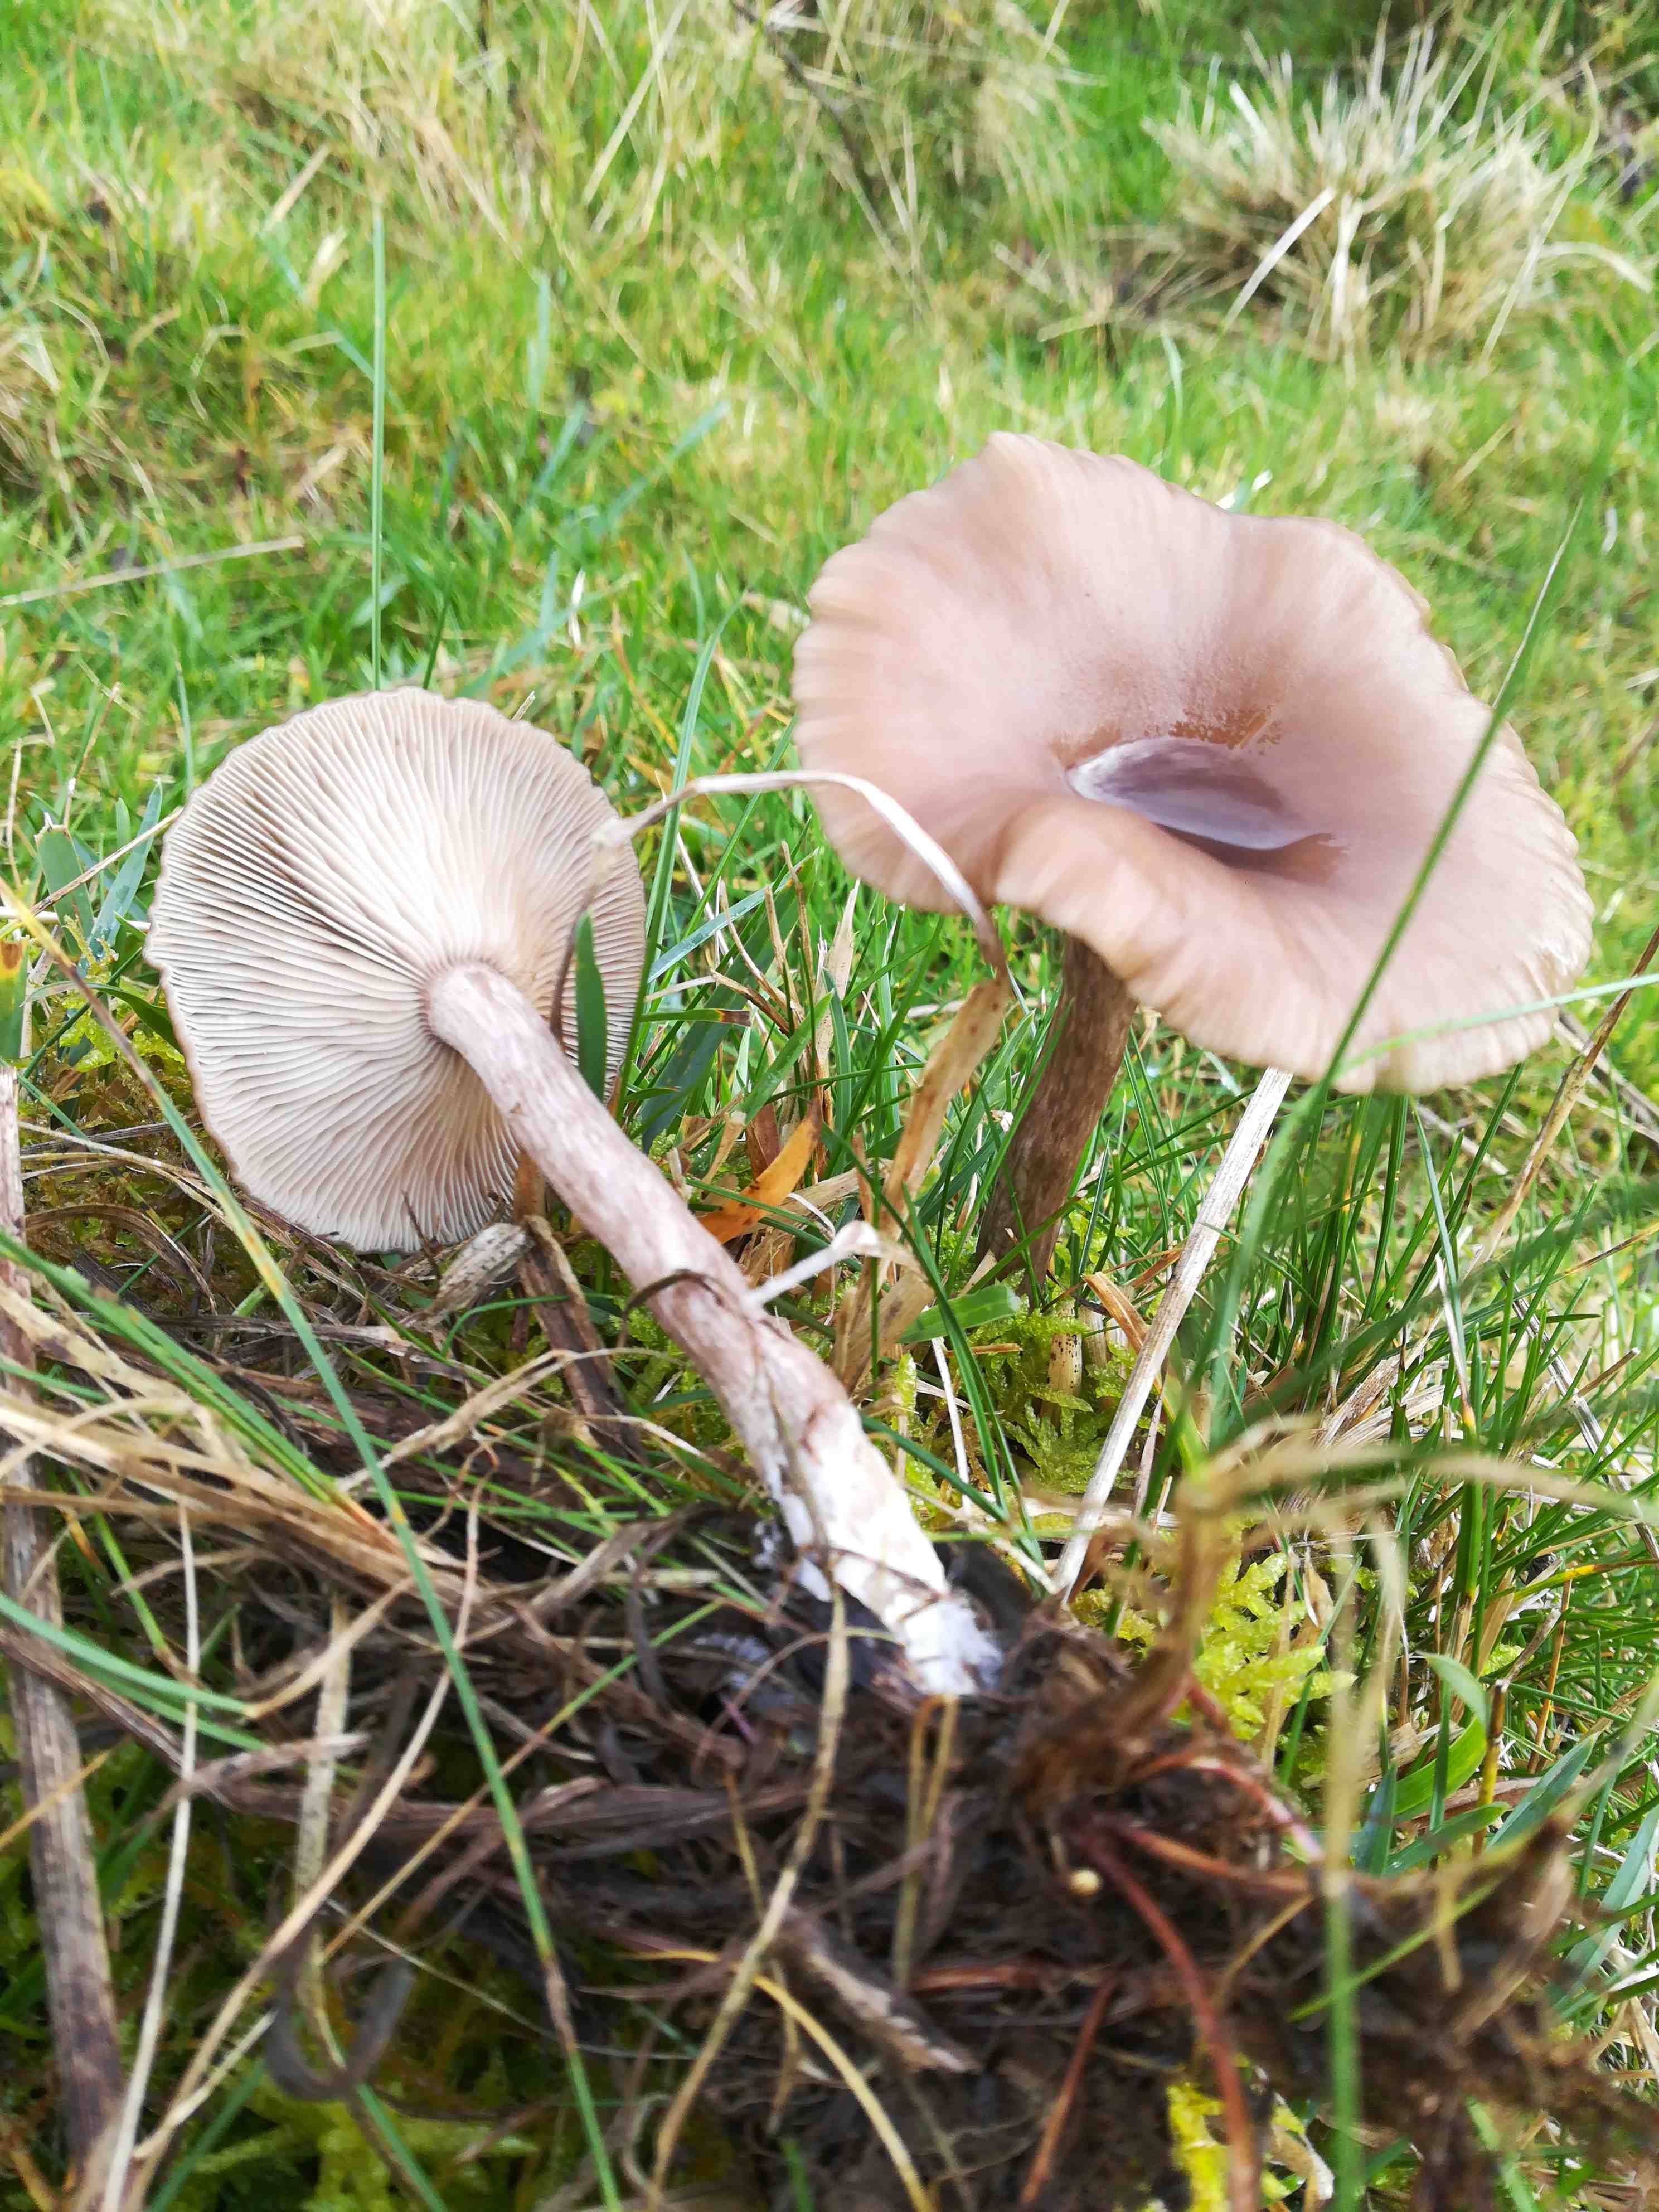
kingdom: Fungi
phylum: Basidiomycota
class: Agaricomycetes
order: Agaricales
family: Pseudoclitocybaceae
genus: Pseudoclitocybe
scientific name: Pseudoclitocybe cyathiformis
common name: almindelig bægertragthat
